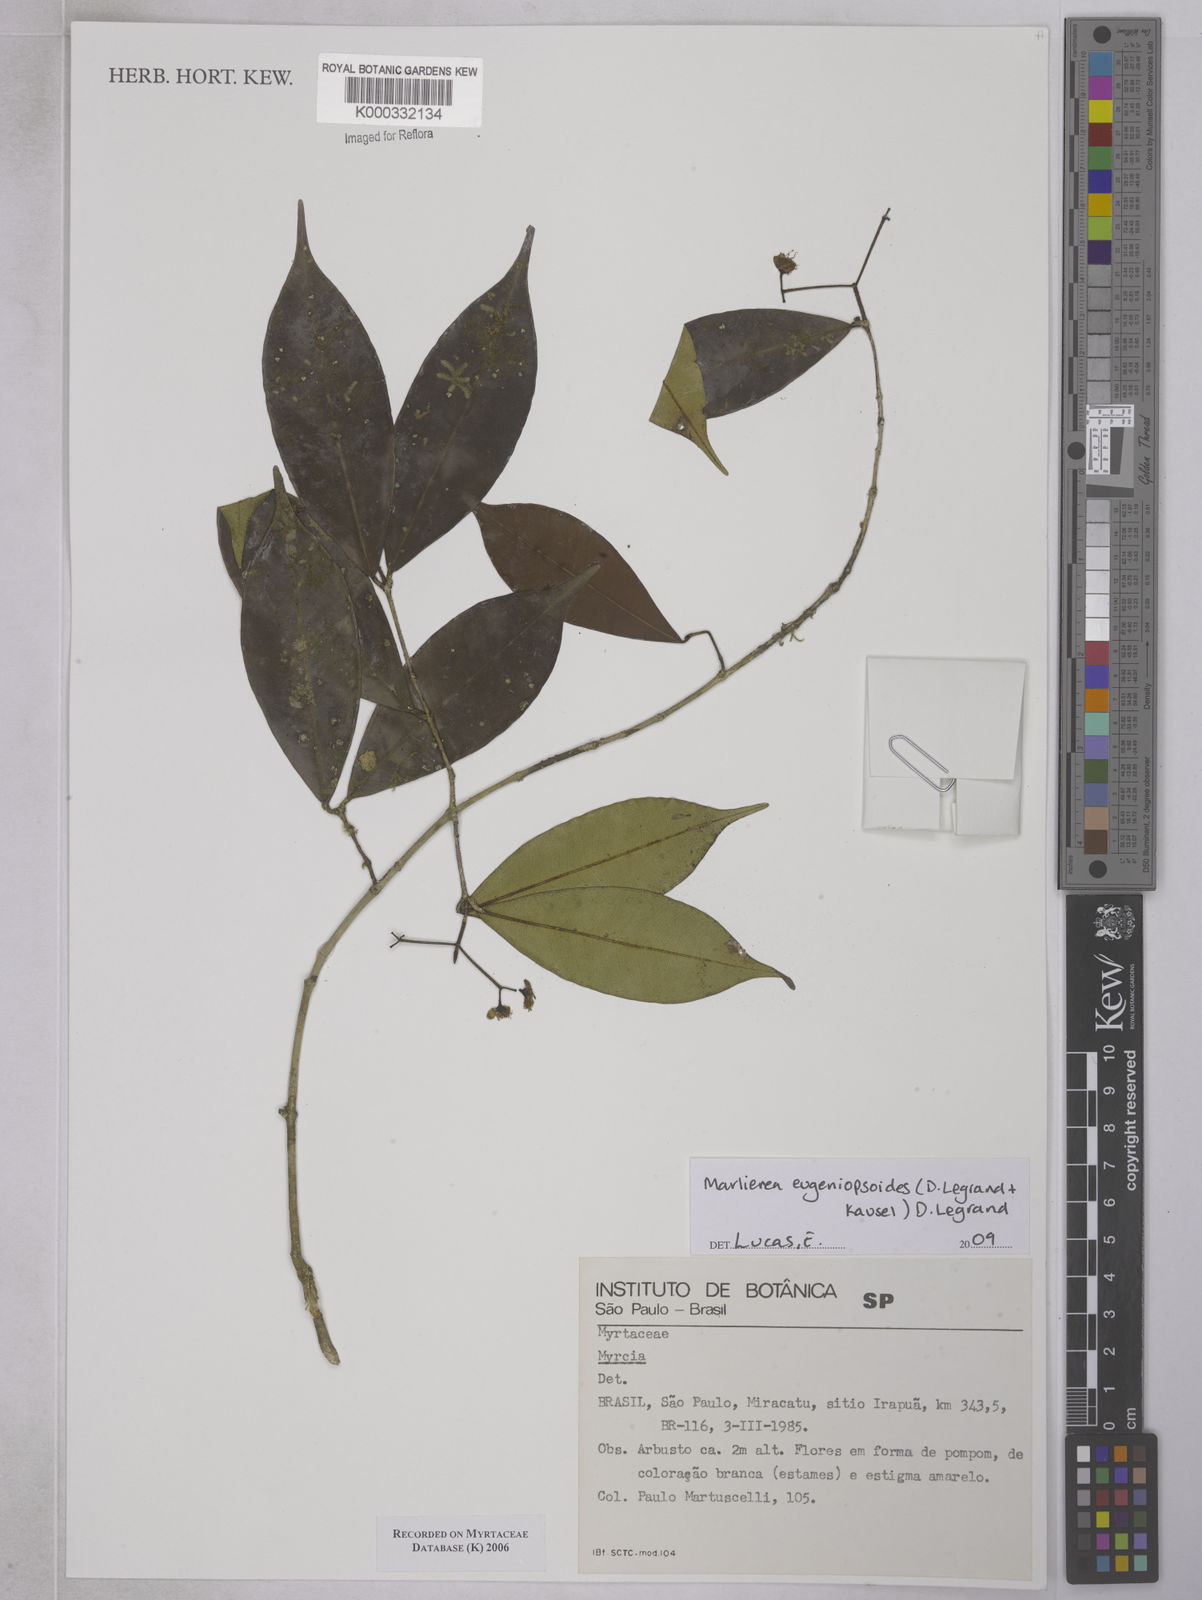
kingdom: Plantae
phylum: Tracheophyta
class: Magnoliopsida
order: Myrtales
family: Myrtaceae
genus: Myrcia
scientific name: Myrcia
